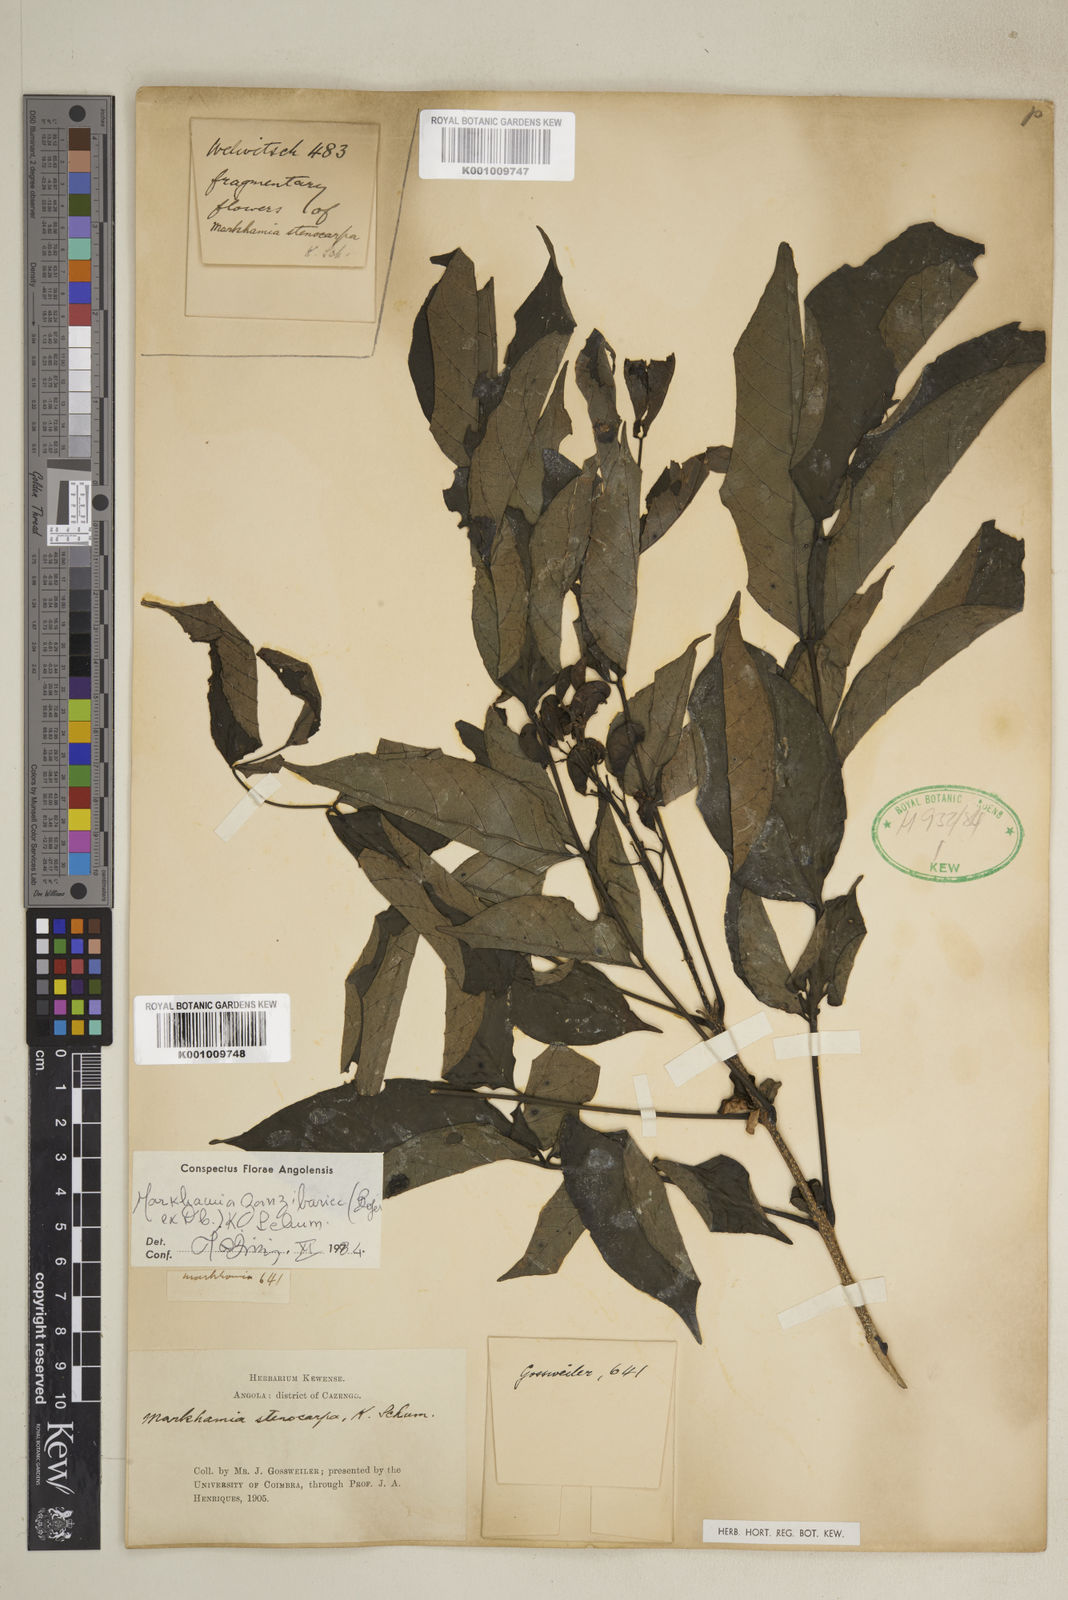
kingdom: Plantae
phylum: Tracheophyta
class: Magnoliopsida
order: Lamiales
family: Bignoniaceae
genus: Markhamia
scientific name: Markhamia zanzibarica
